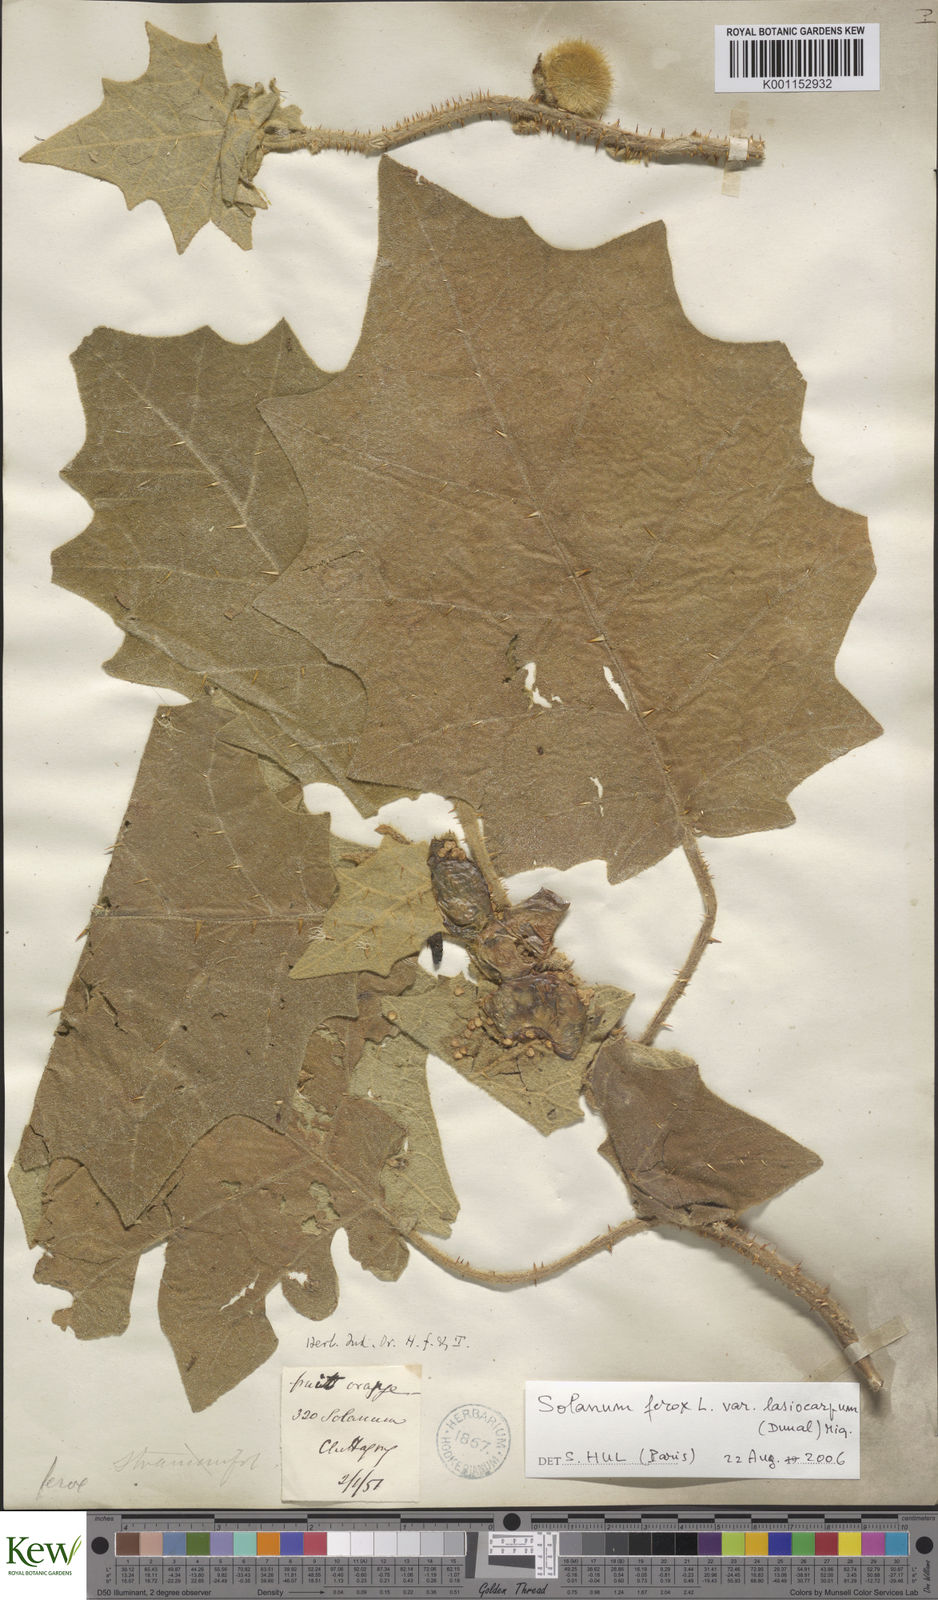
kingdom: Plantae
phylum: Tracheophyta
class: Magnoliopsida
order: Solanales
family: Solanaceae
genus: Solanum
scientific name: Solanum
